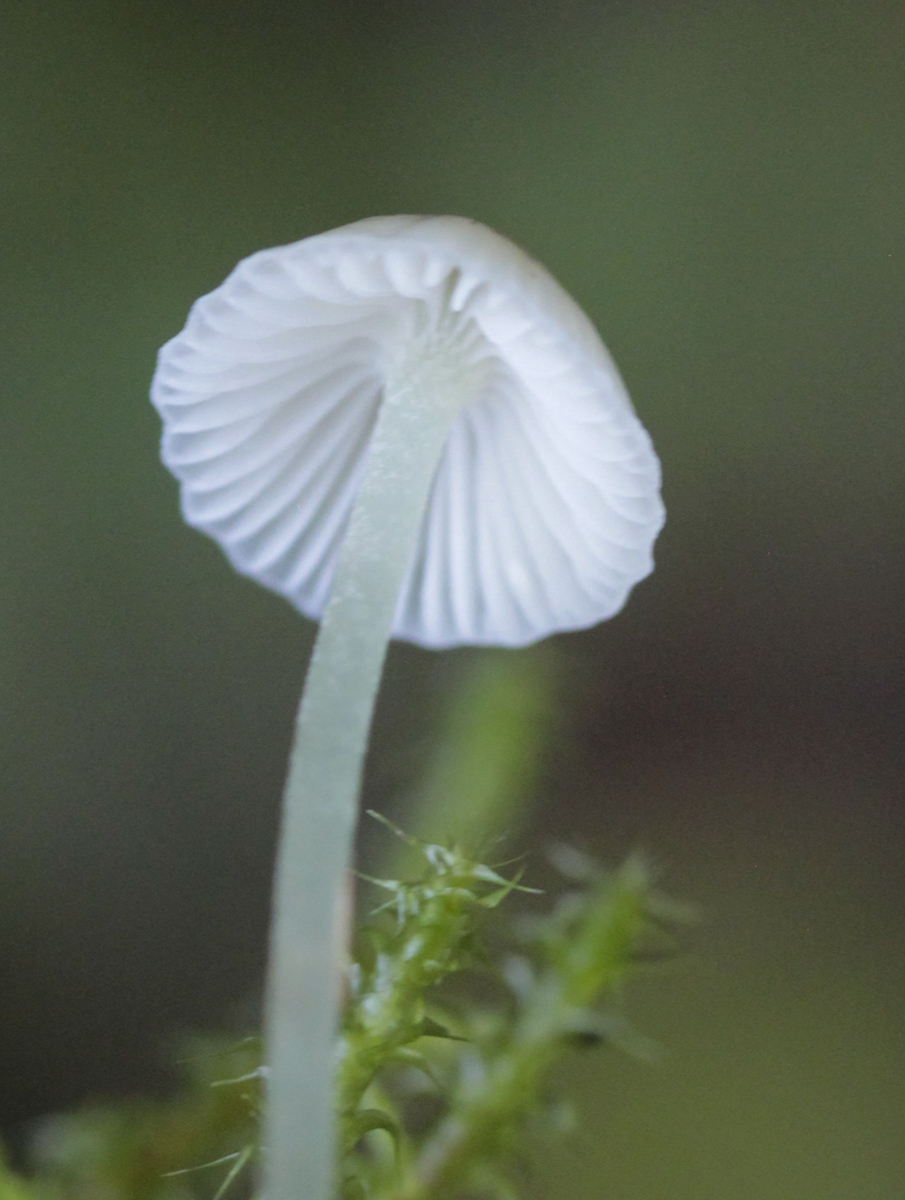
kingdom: Fungi
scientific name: Fungi
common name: Fungi
